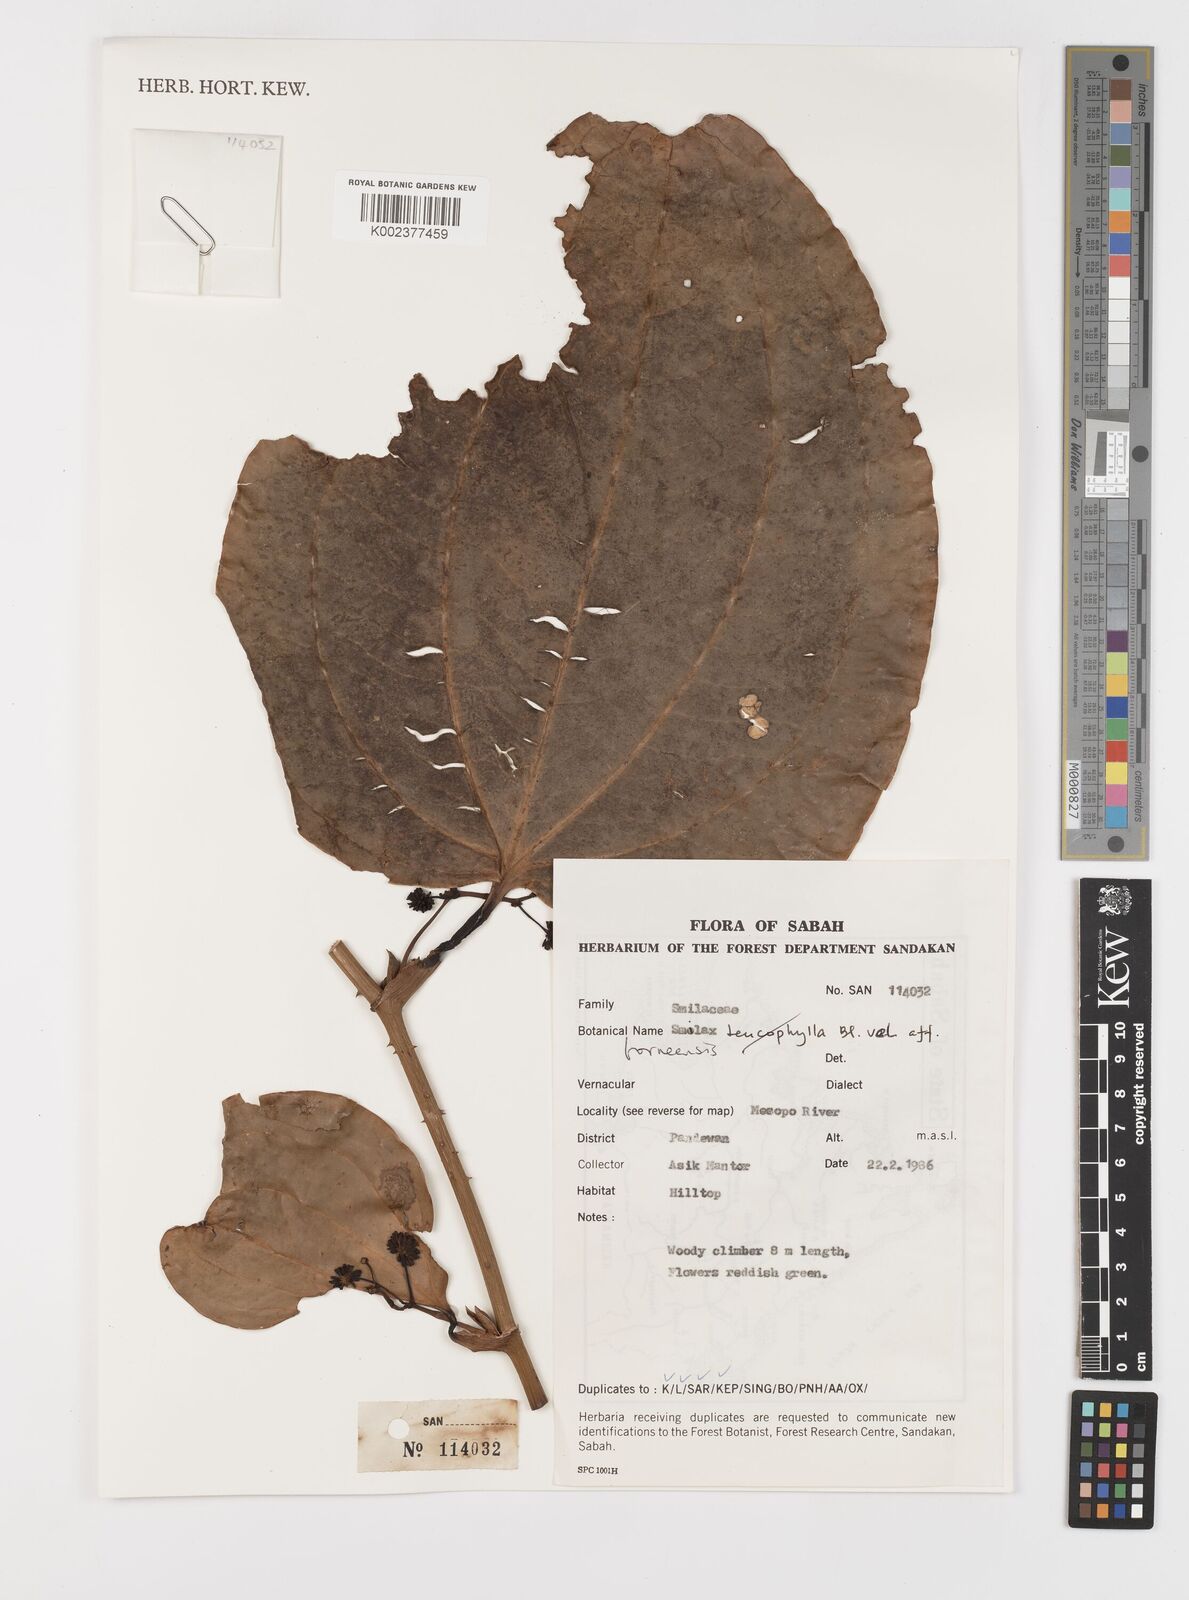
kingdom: Plantae
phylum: Tracheophyta
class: Liliopsida
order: Liliales
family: Smilacaceae
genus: Smilax
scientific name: Smilax borneensis
